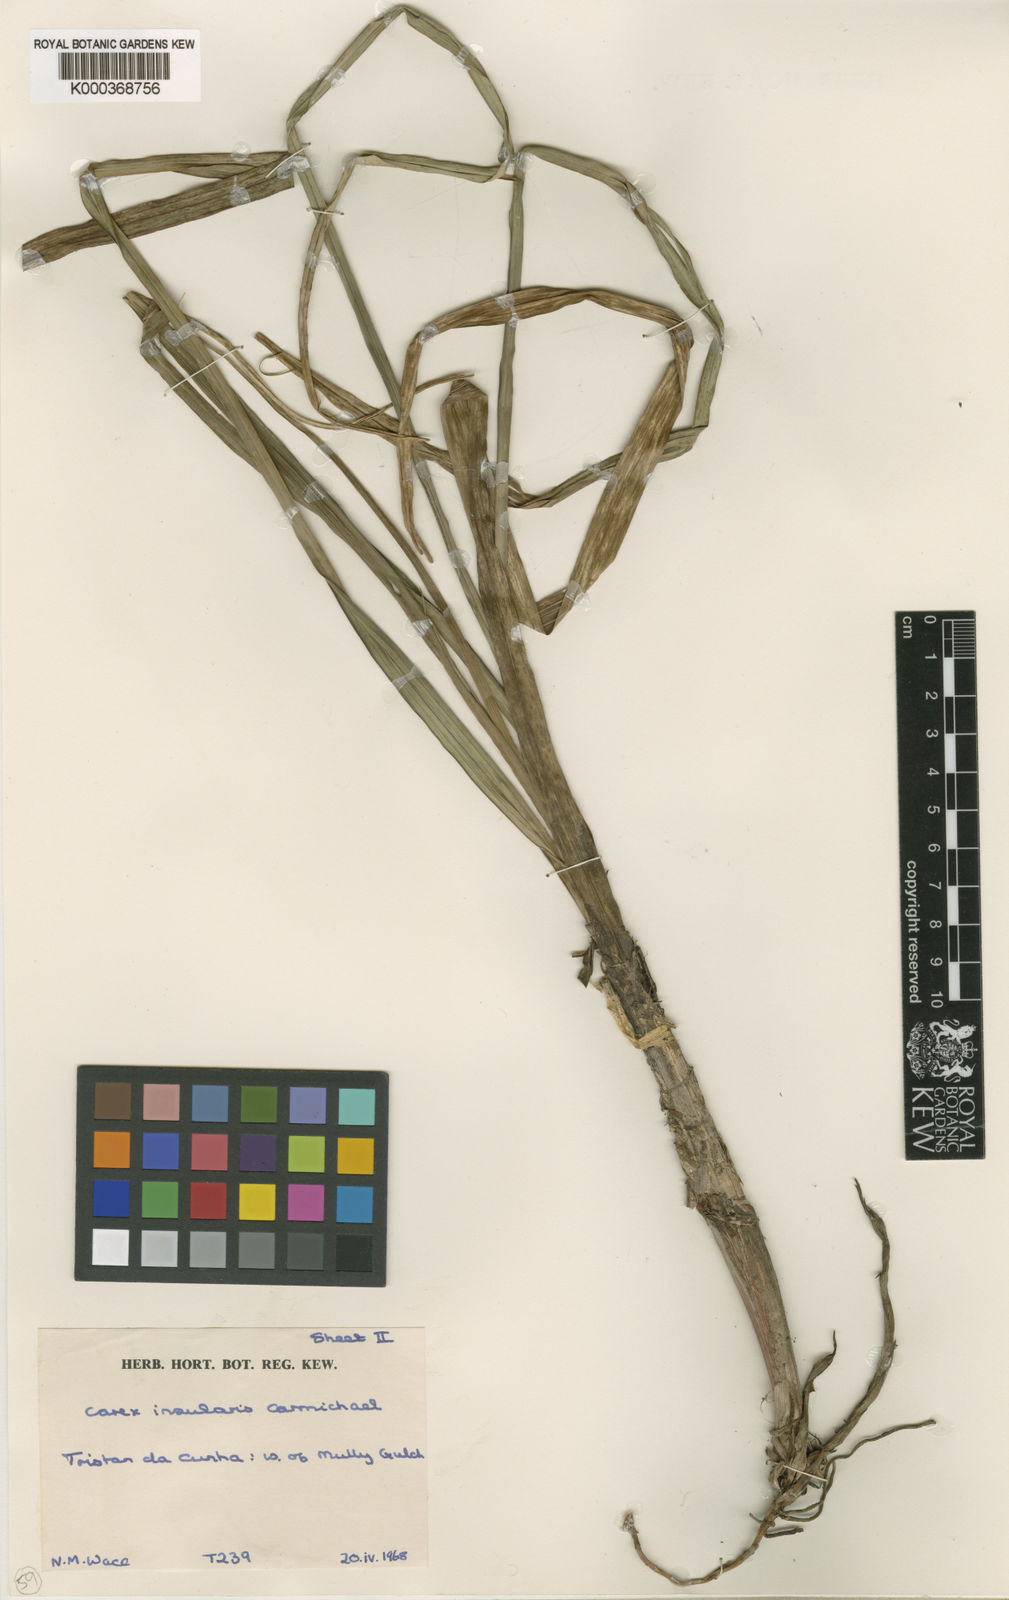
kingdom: Plantae
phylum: Tracheophyta
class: Liliopsida
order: Poales
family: Cyperaceae
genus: Carex
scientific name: Carex insularis
